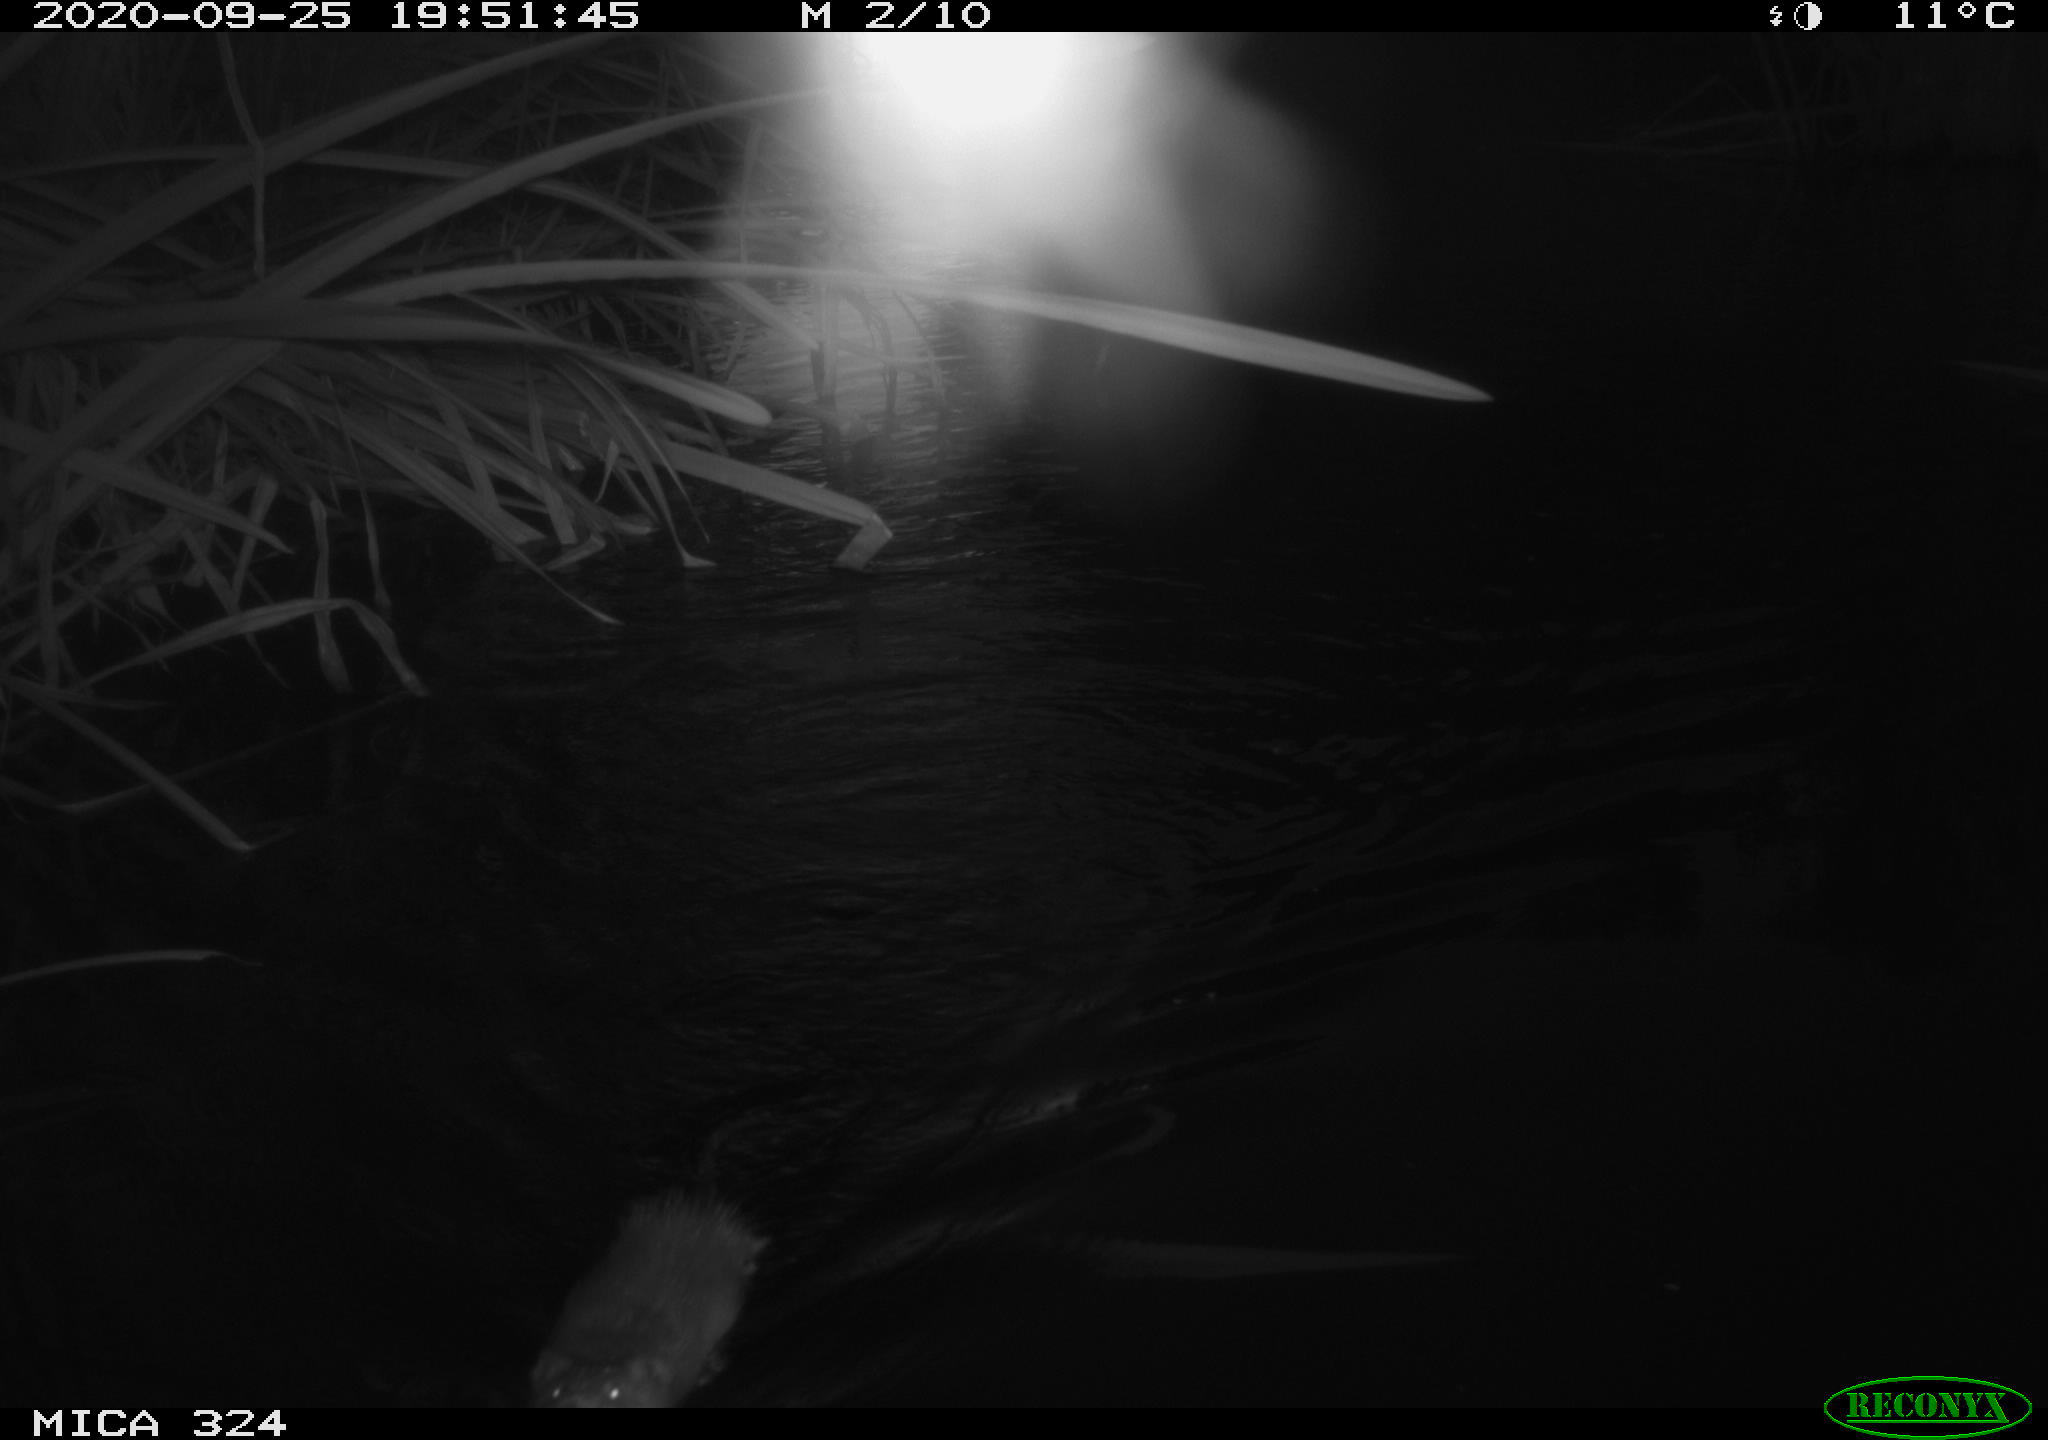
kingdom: Animalia
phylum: Chordata
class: Mammalia
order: Rodentia
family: Cricetidae
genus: Ondatra
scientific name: Ondatra zibethicus
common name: Muskrat
